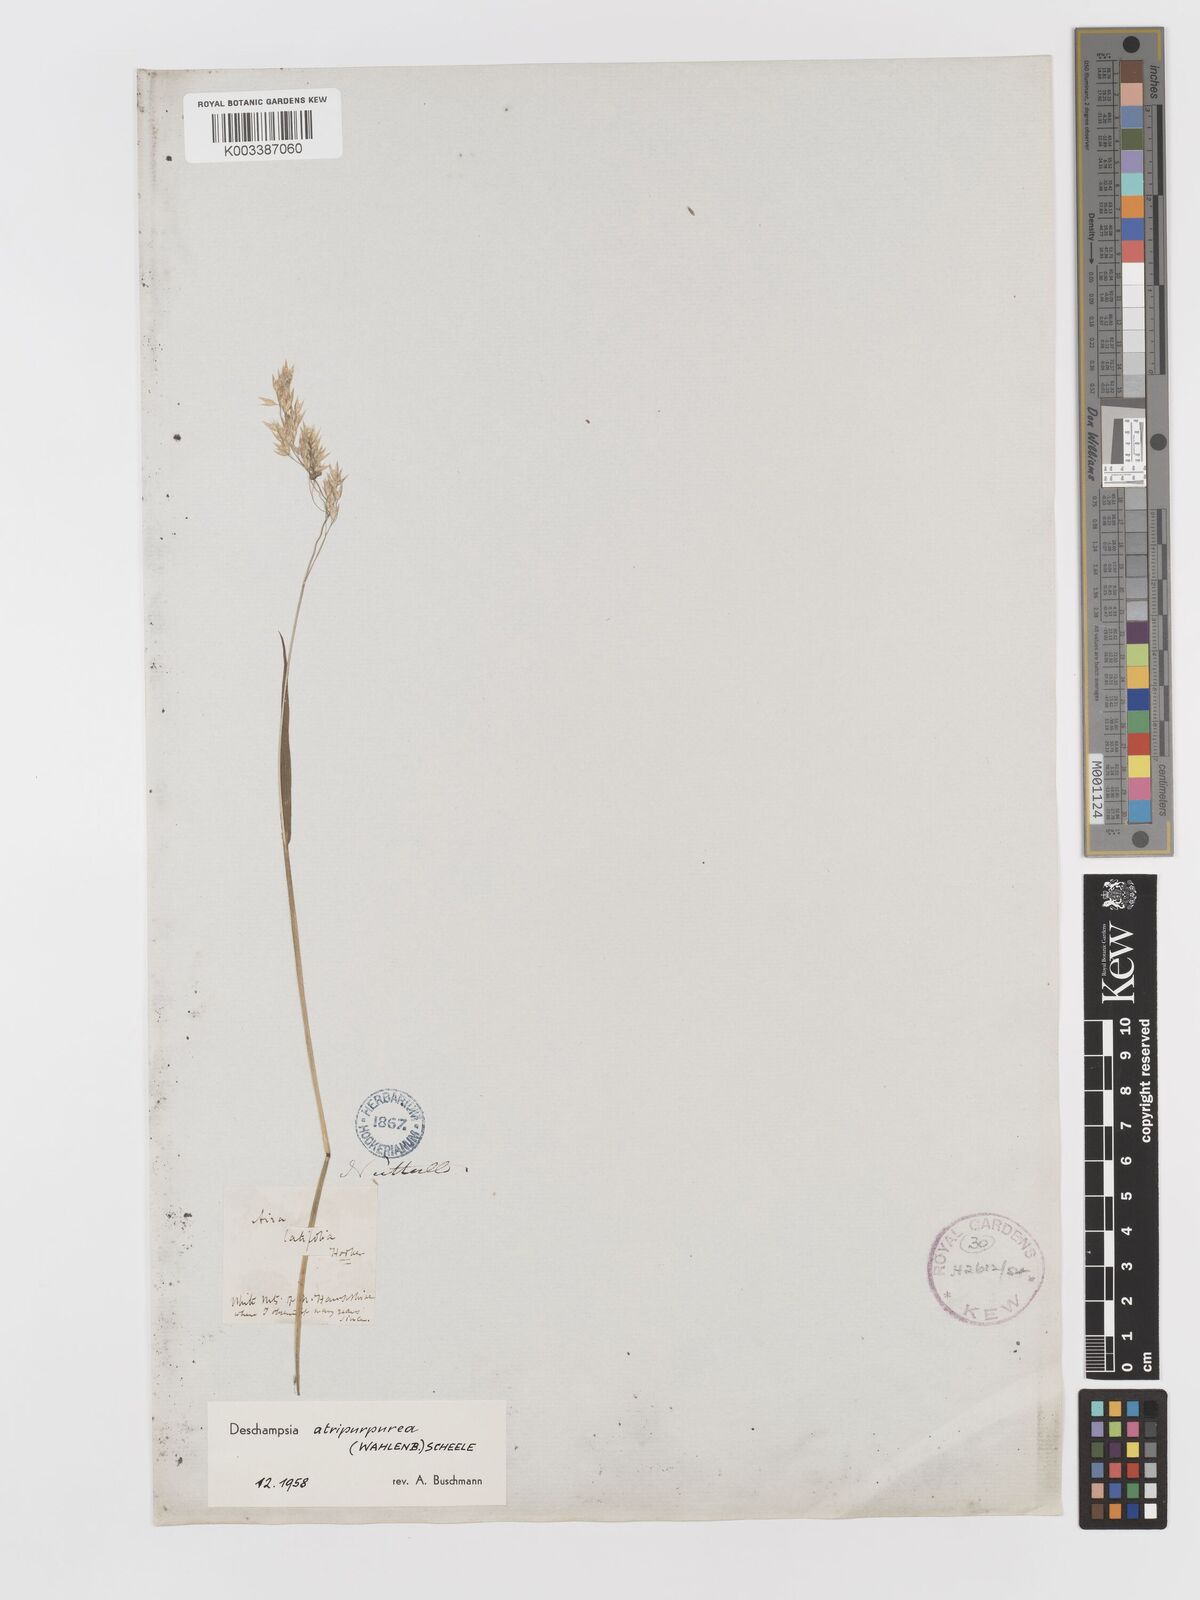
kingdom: Plantae
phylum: Tracheophyta
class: Liliopsida
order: Poales
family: Poaceae
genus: Vahlodea
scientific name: Vahlodea atropurpurea
